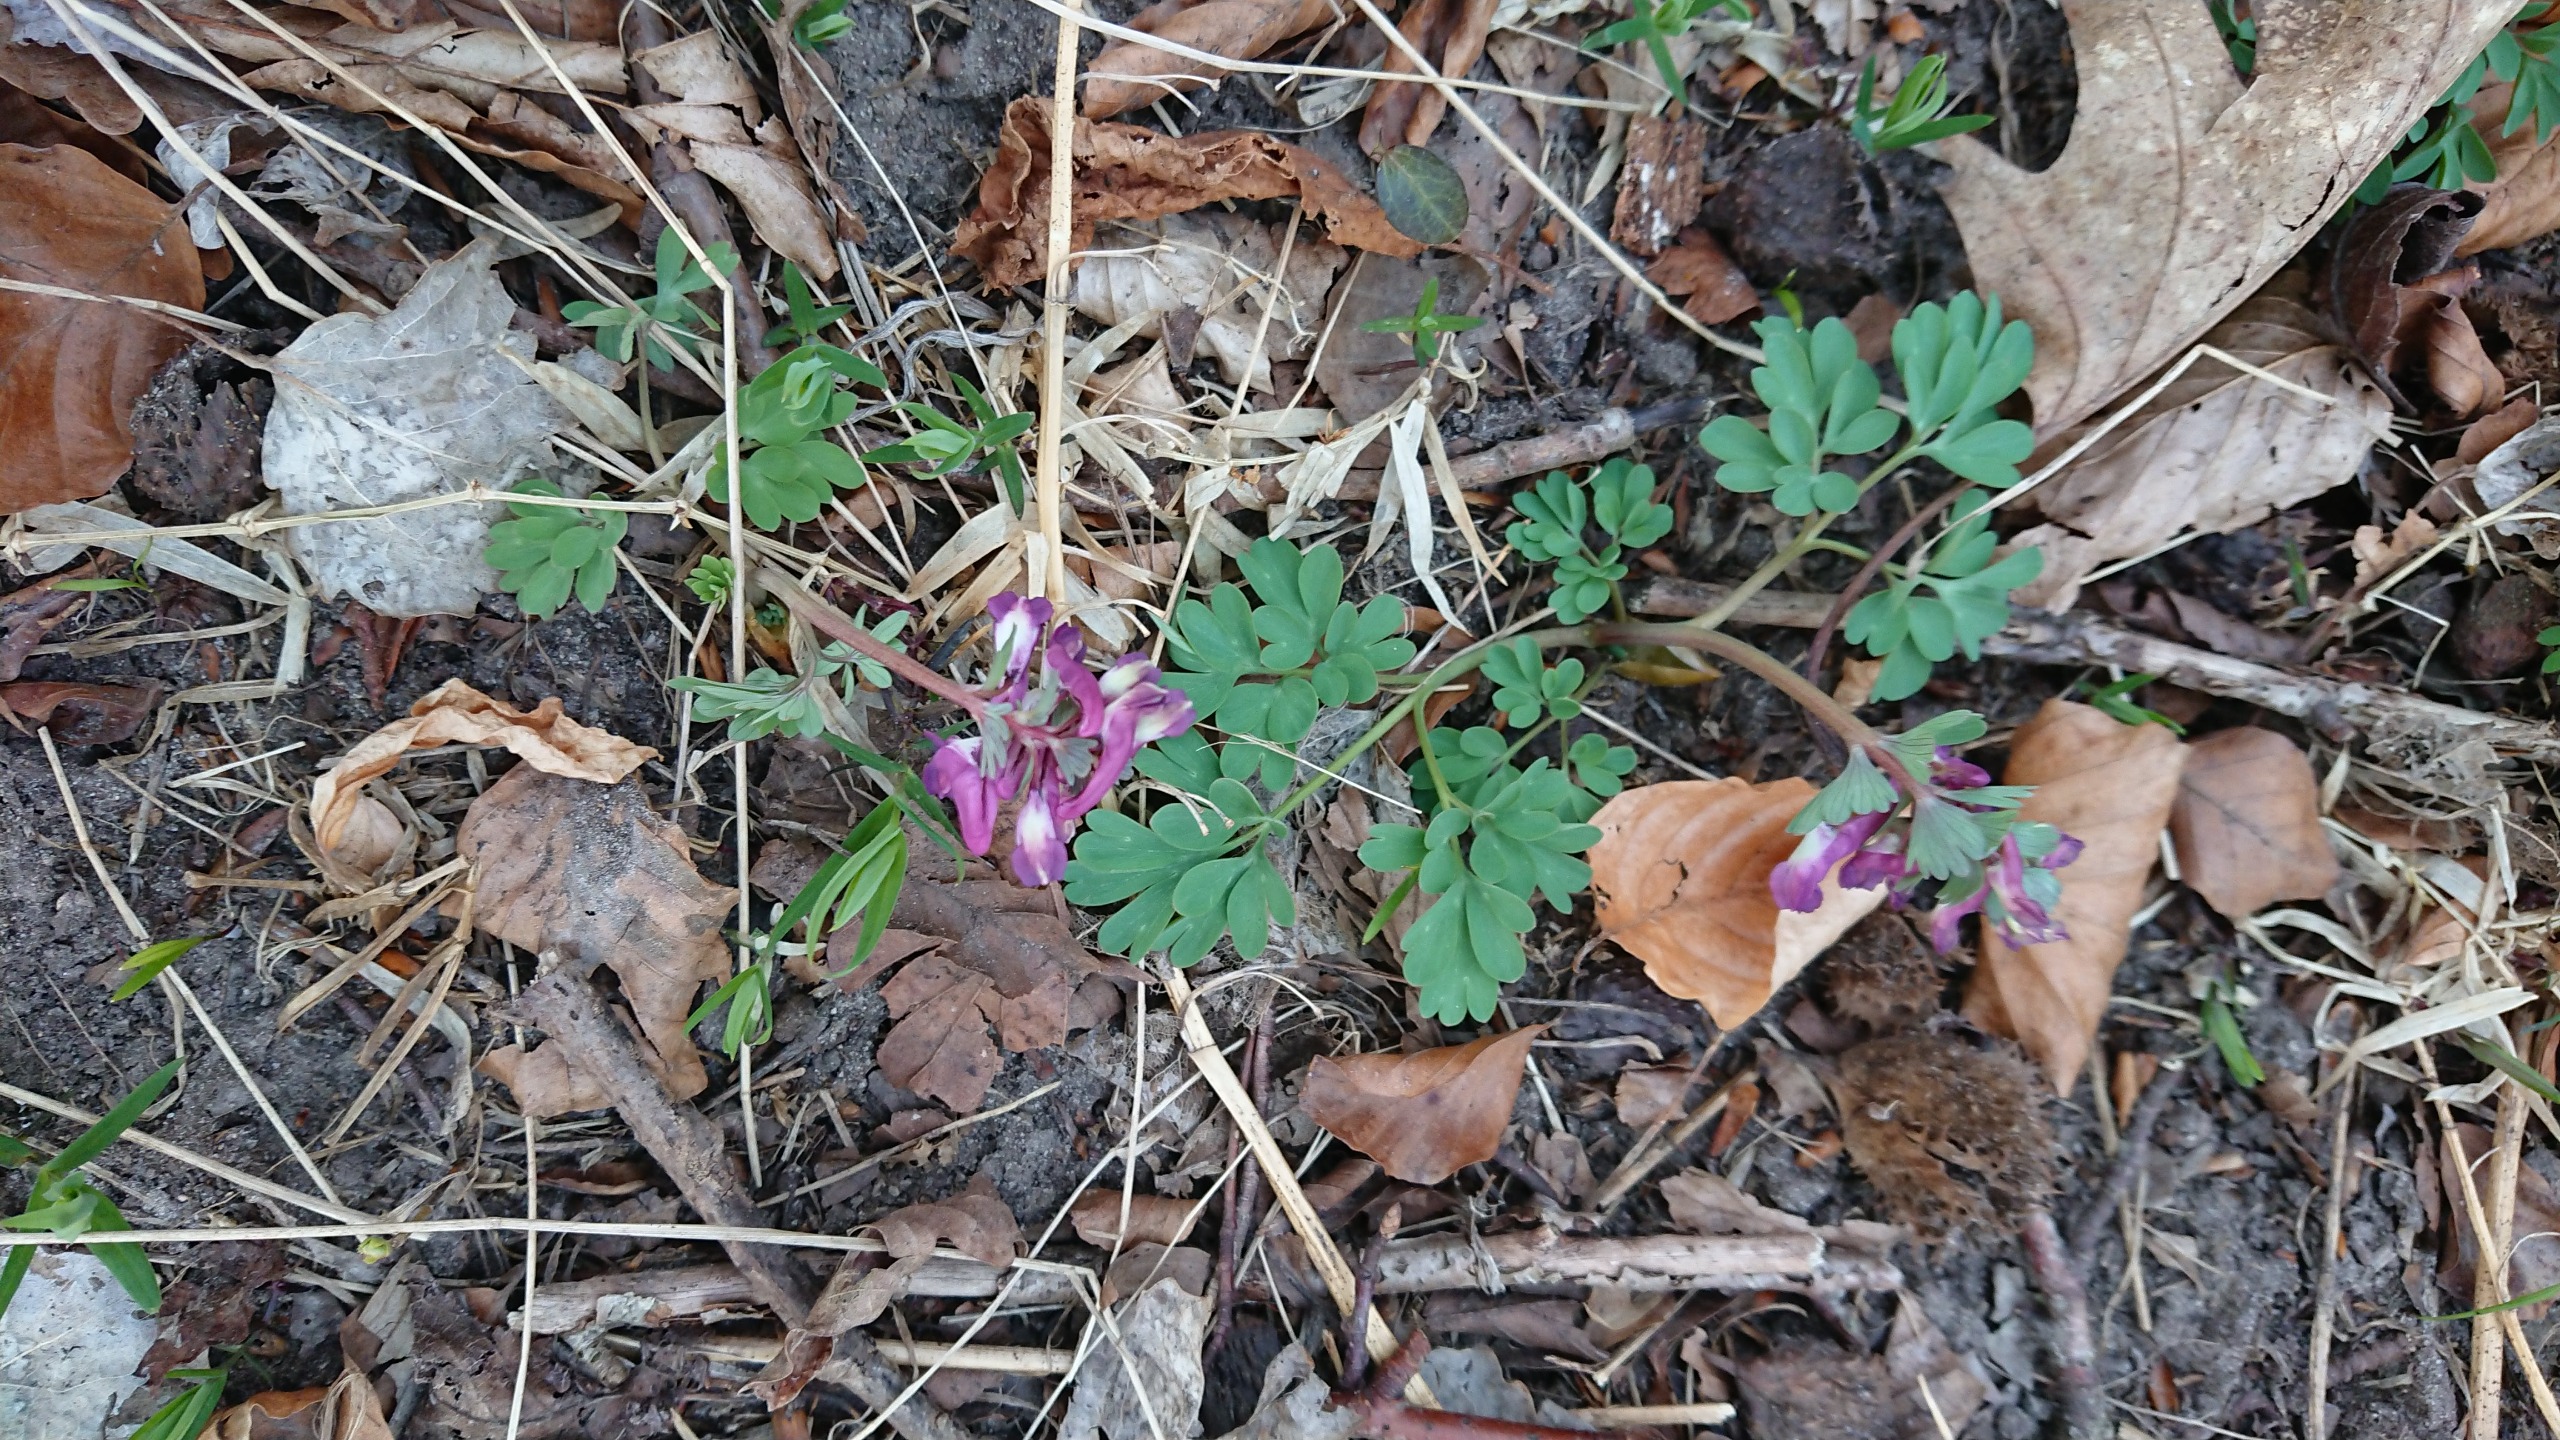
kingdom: Plantae
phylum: Tracheophyta
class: Magnoliopsida
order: Ranunculales
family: Papaveraceae
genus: Corydalis
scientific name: Corydalis pumila
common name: Finger-lærkespore
